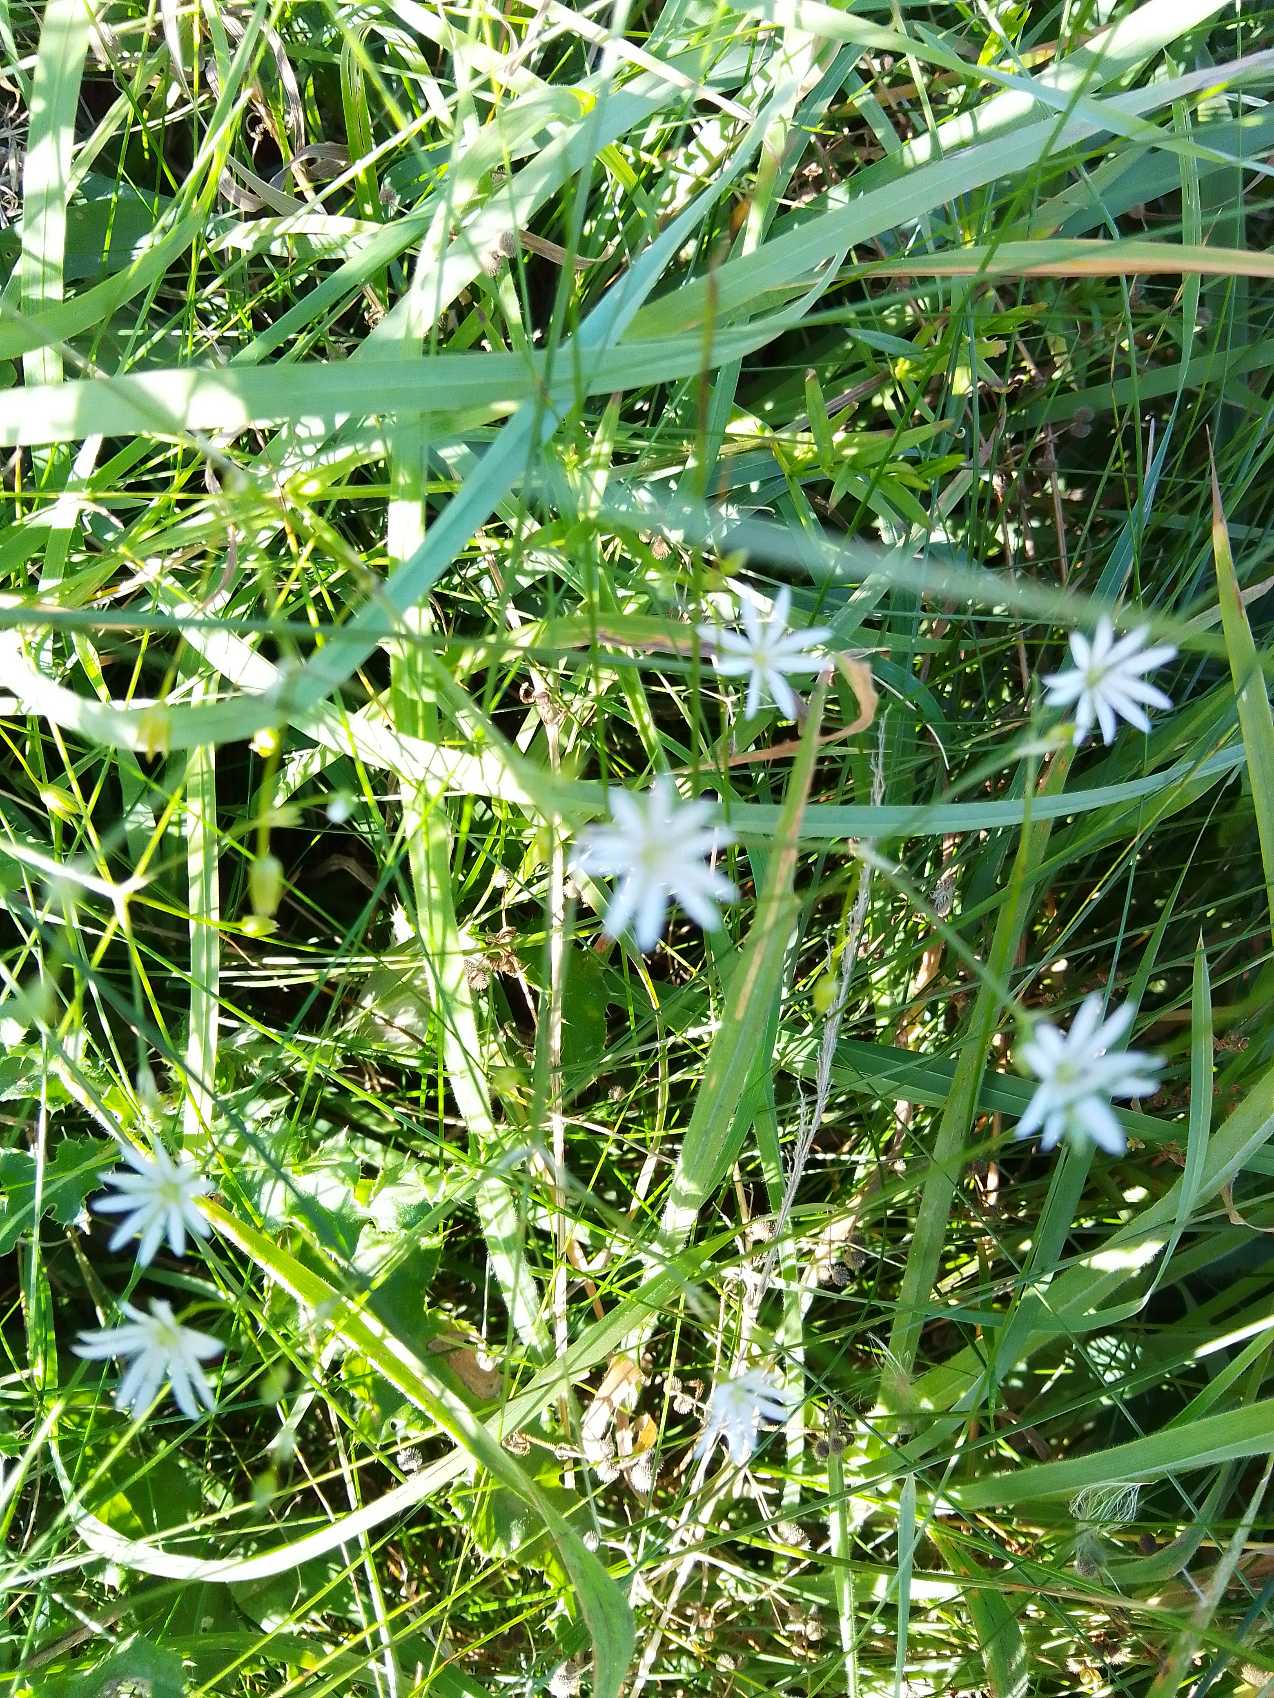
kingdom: Plantae
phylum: Tracheophyta
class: Magnoliopsida
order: Caryophyllales
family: Caryophyllaceae
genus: Stellaria
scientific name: Stellaria graminea
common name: Græsbladet fladstjerne
